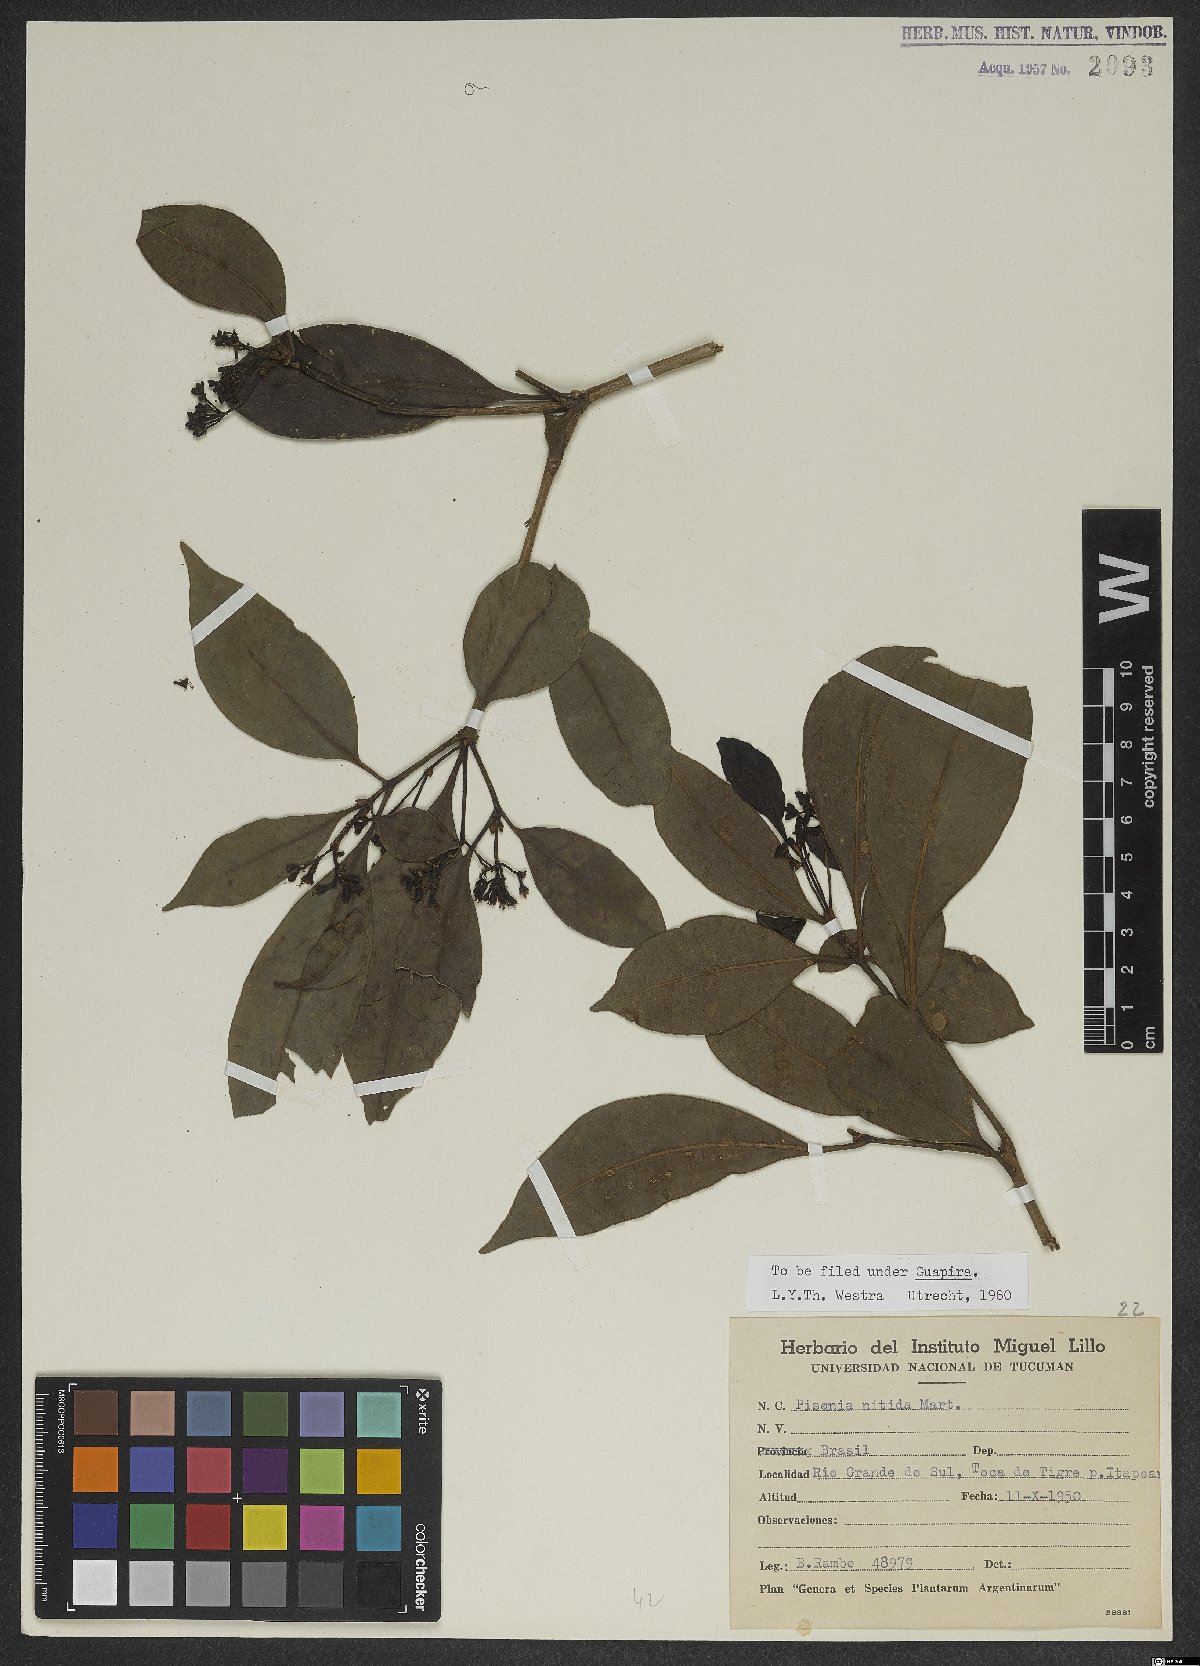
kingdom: Plantae
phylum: Tracheophyta
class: Magnoliopsida
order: Caryophyllales
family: Nyctaginaceae
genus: Guapira
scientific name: Guapira nitida
